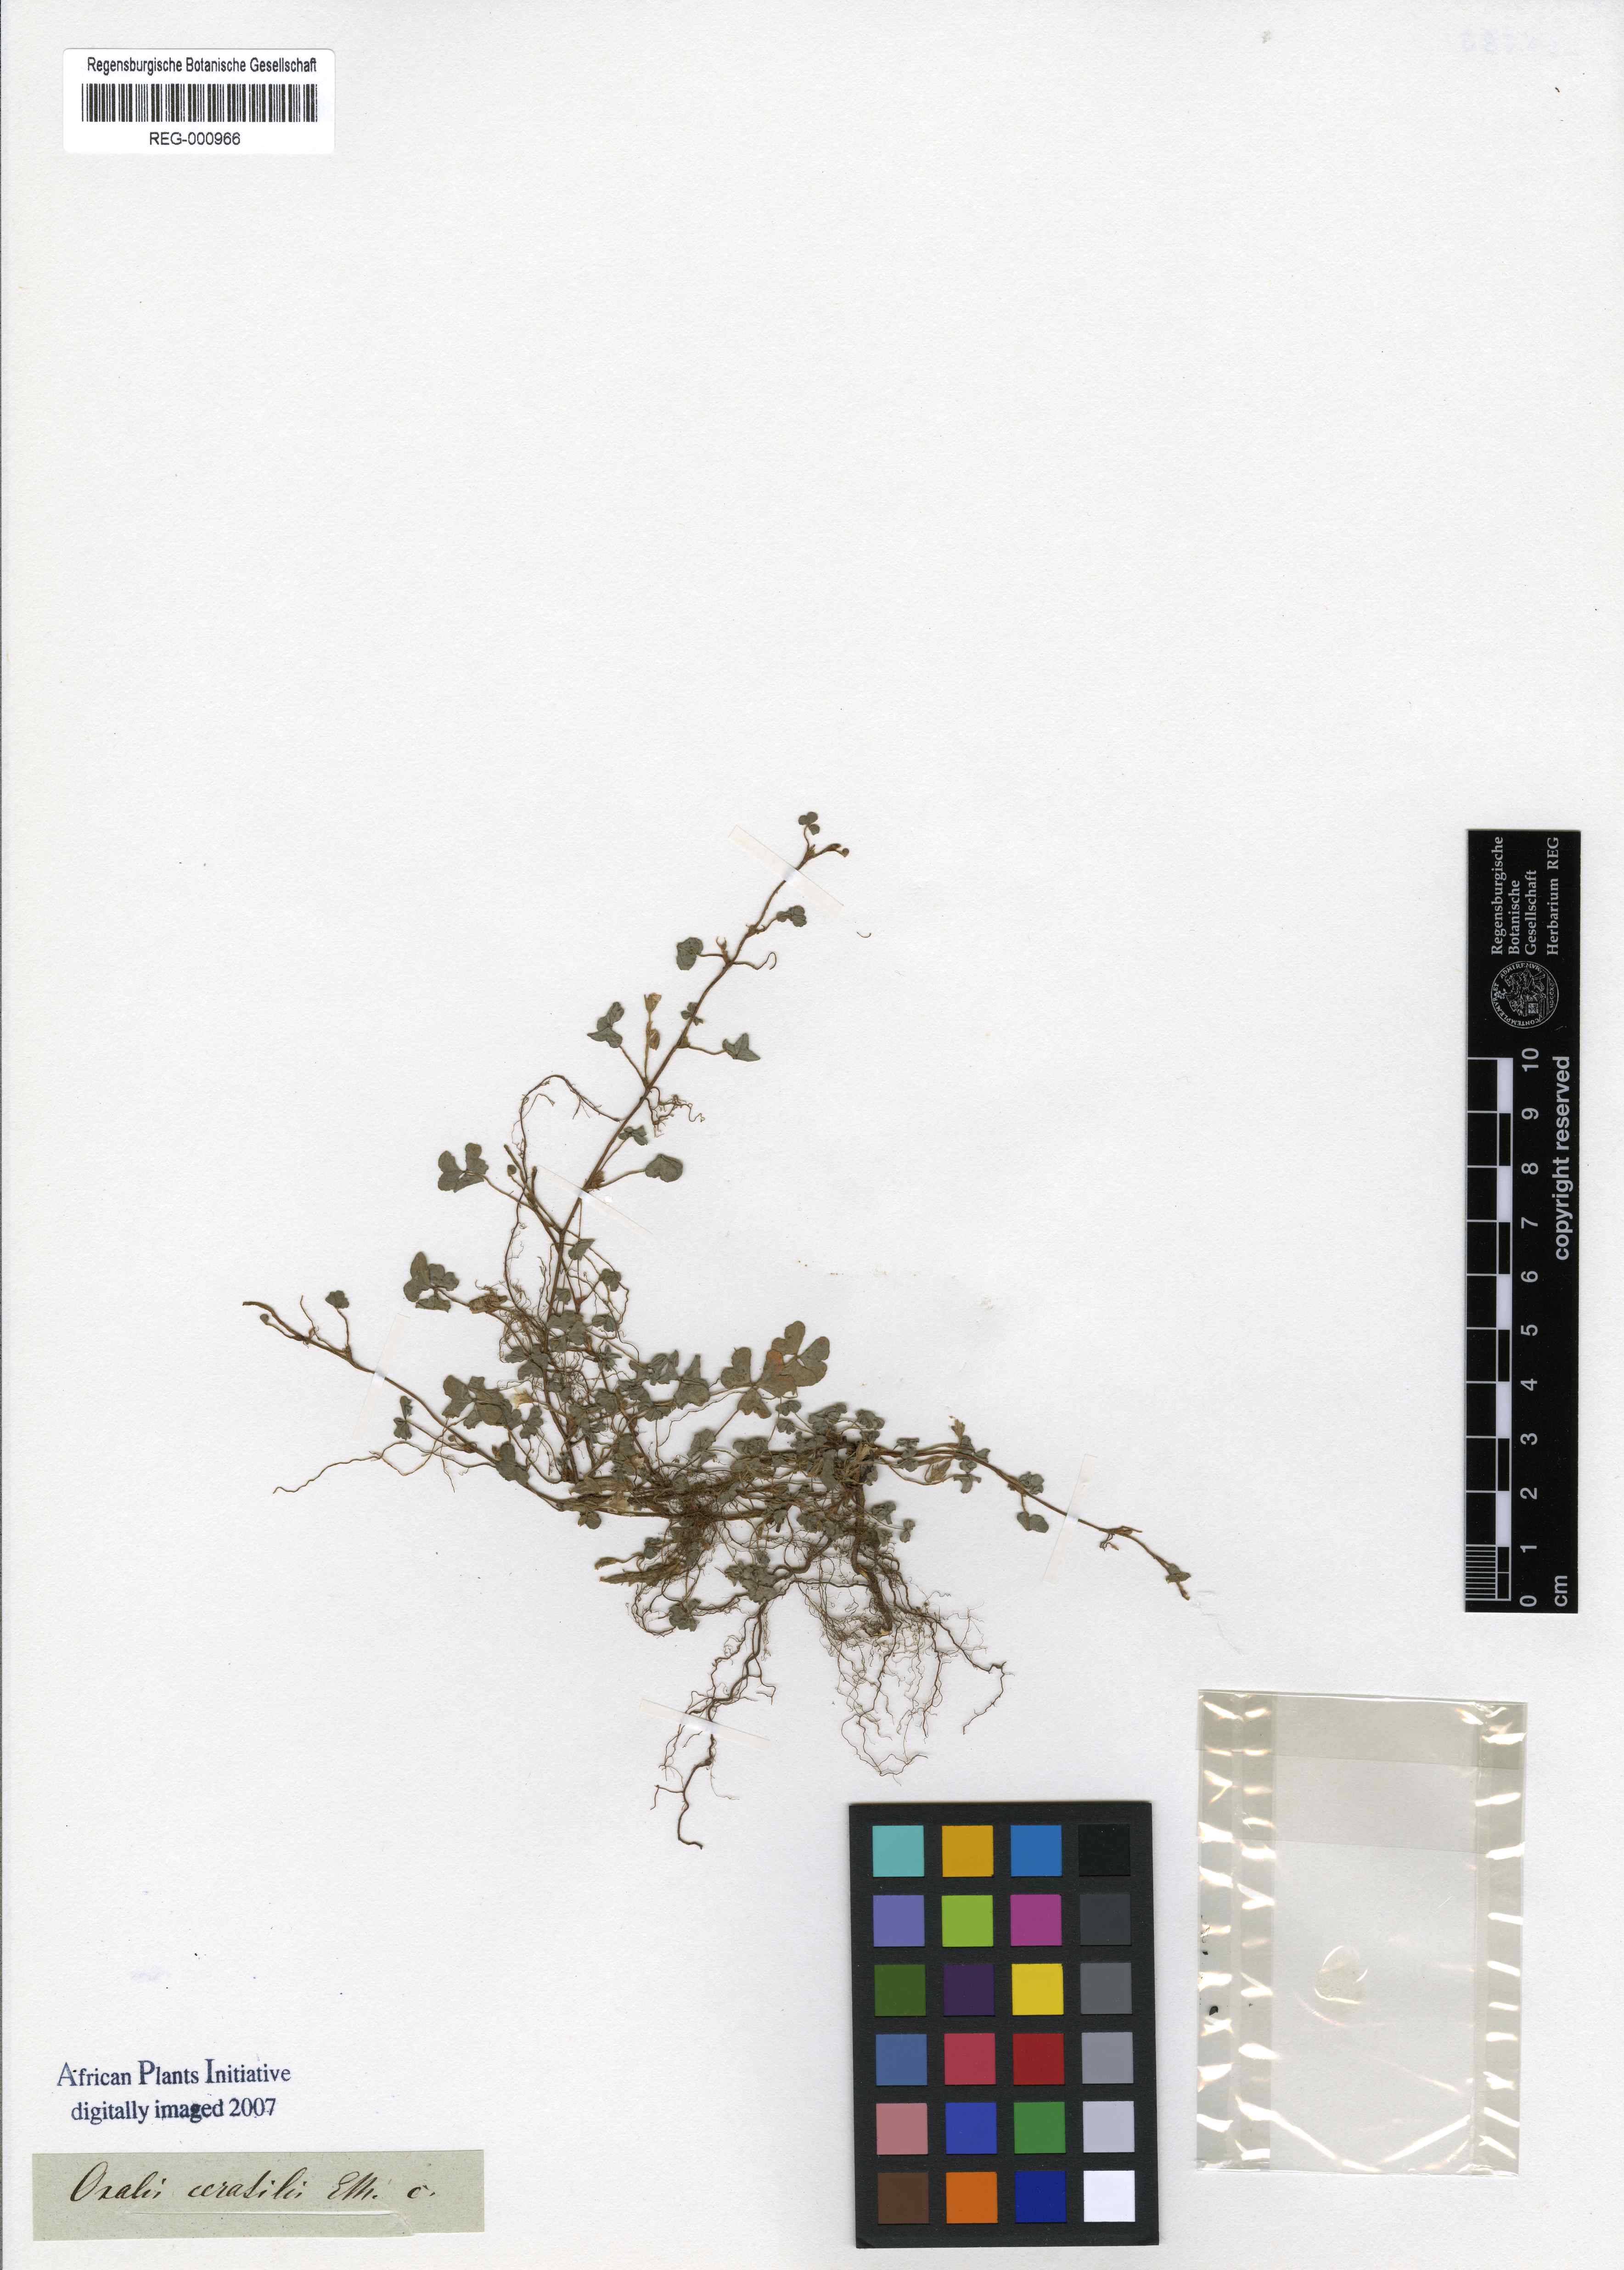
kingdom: Plantae
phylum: Tracheophyta
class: Magnoliopsida
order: Oxalidales
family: Oxalidaceae
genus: Oxalis
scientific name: Oxalis corniculata
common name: Procumbent yellow-sorrel
